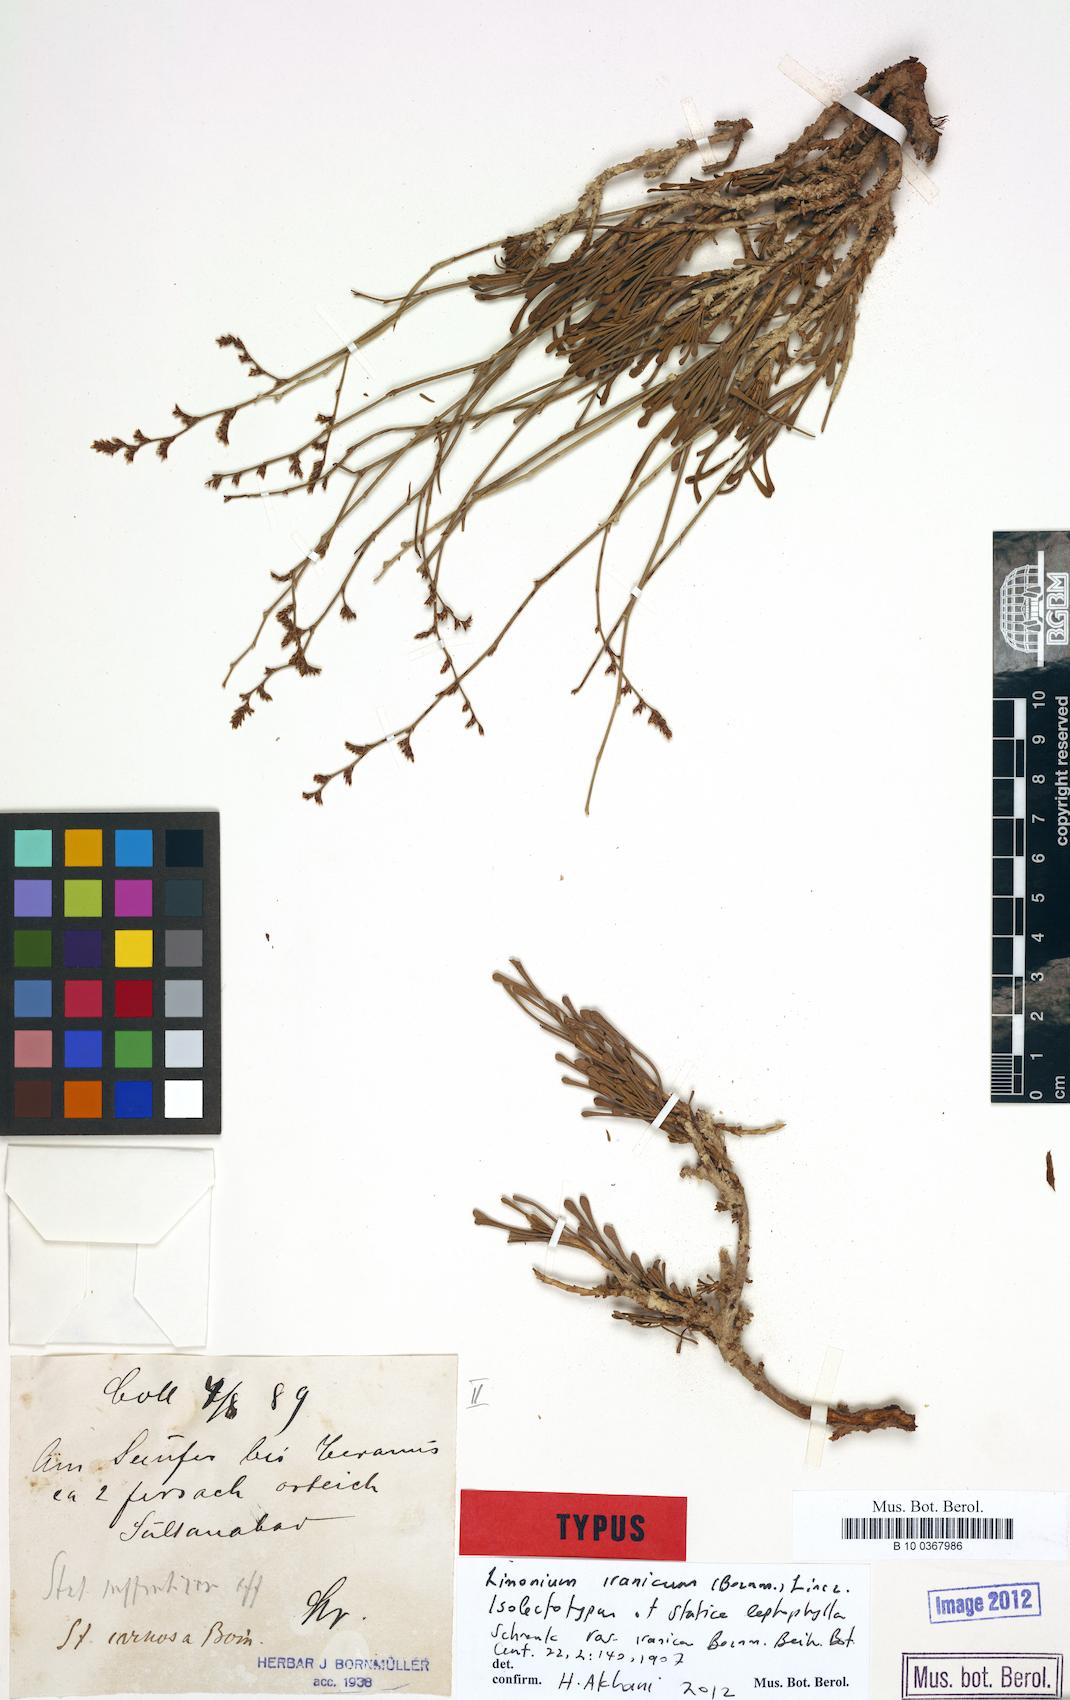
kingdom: Plantae
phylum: Tracheophyta
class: Magnoliopsida
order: Caryophyllales
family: Plumbaginaceae
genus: Limonium
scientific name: Limonium iranicum
